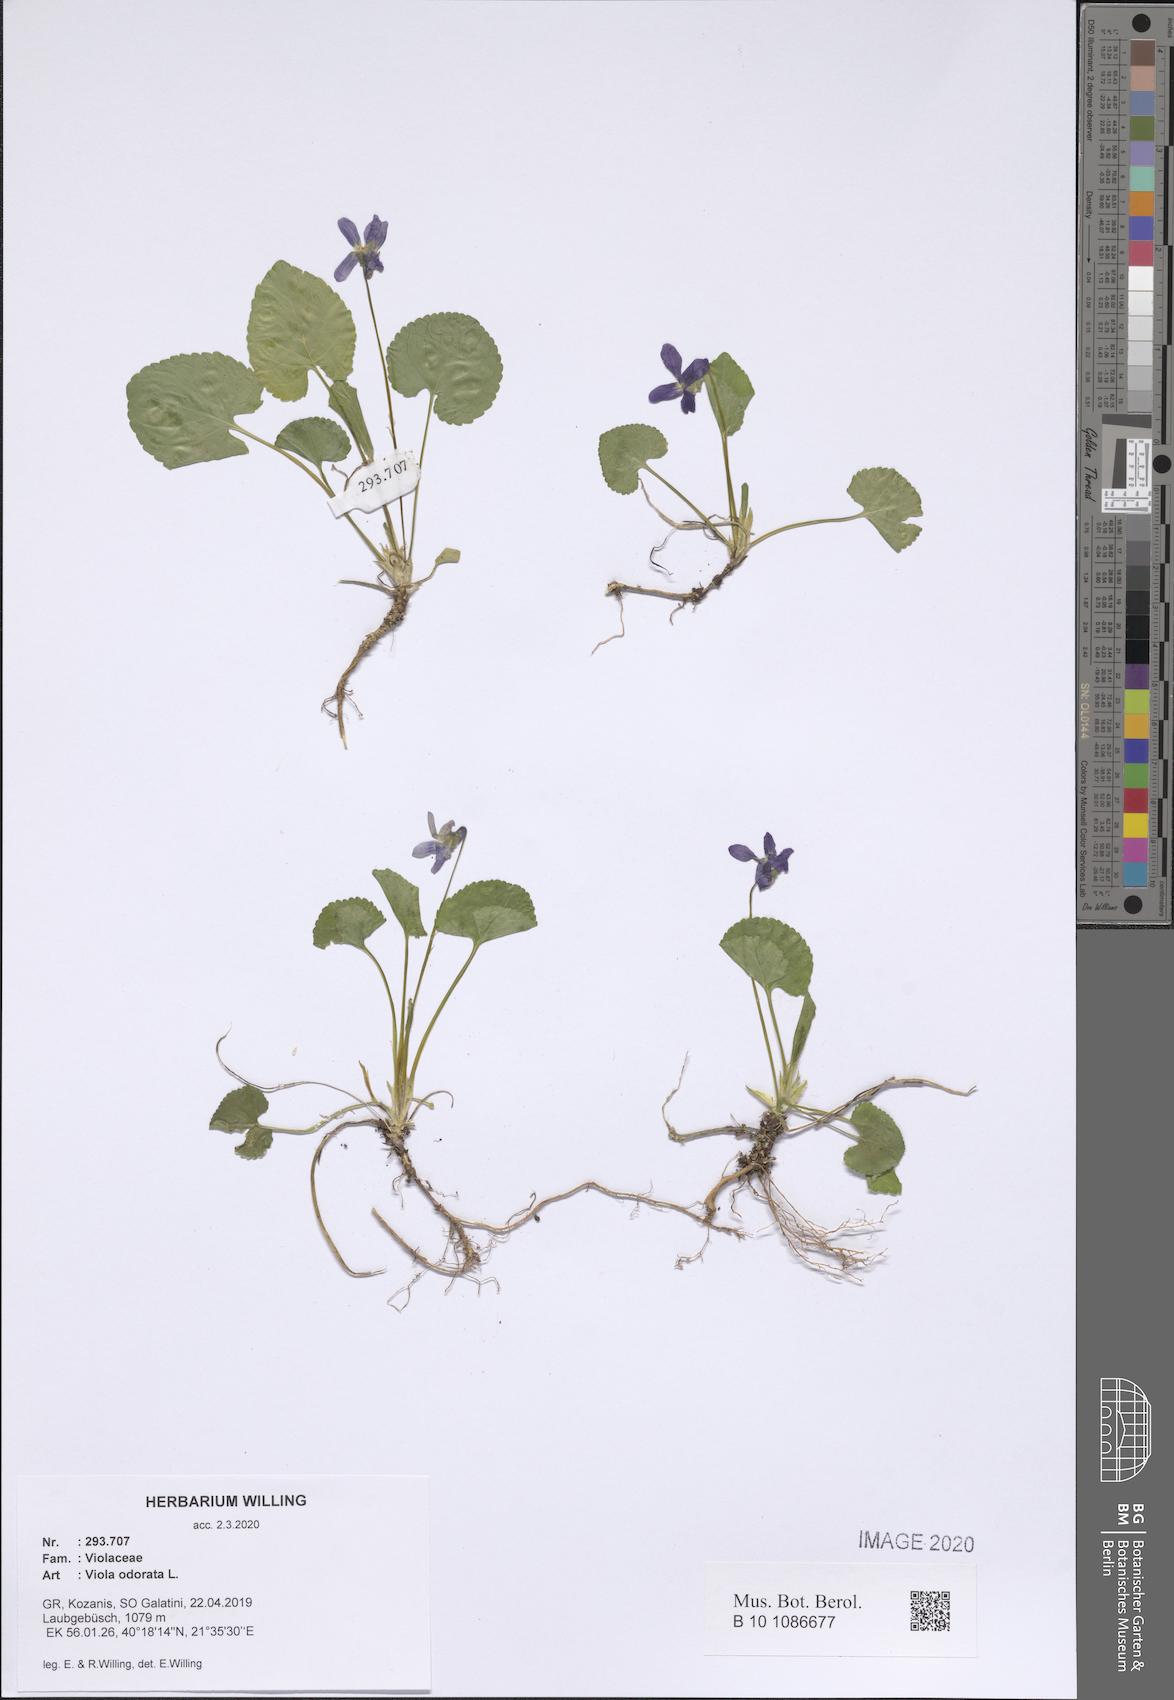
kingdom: Plantae
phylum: Tracheophyta
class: Magnoliopsida
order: Malpighiales
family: Violaceae
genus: Viola
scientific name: Viola odorata
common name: Sweet violet
